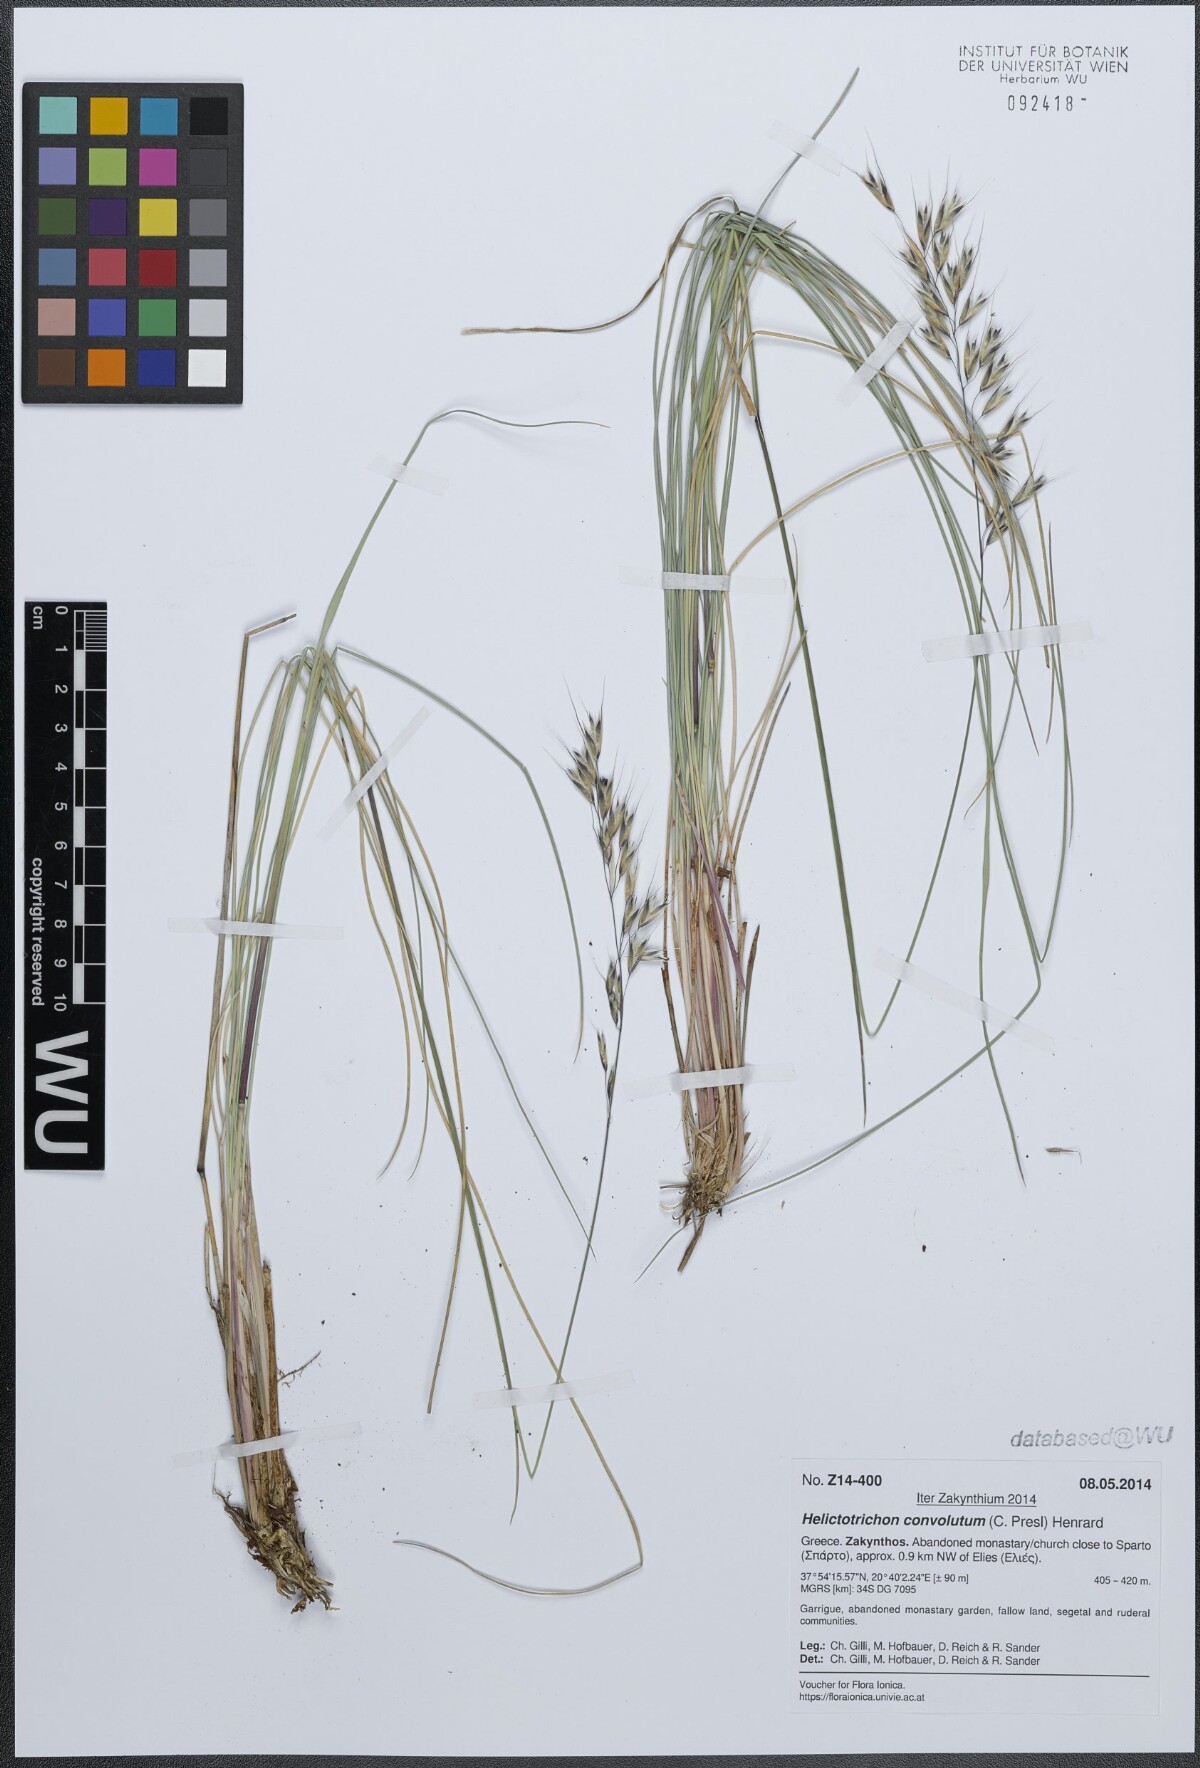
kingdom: Plantae
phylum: Tracheophyta
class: Liliopsida
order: Poales
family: Poaceae
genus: Helictotrichon
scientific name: Helictotrichon convolutum
